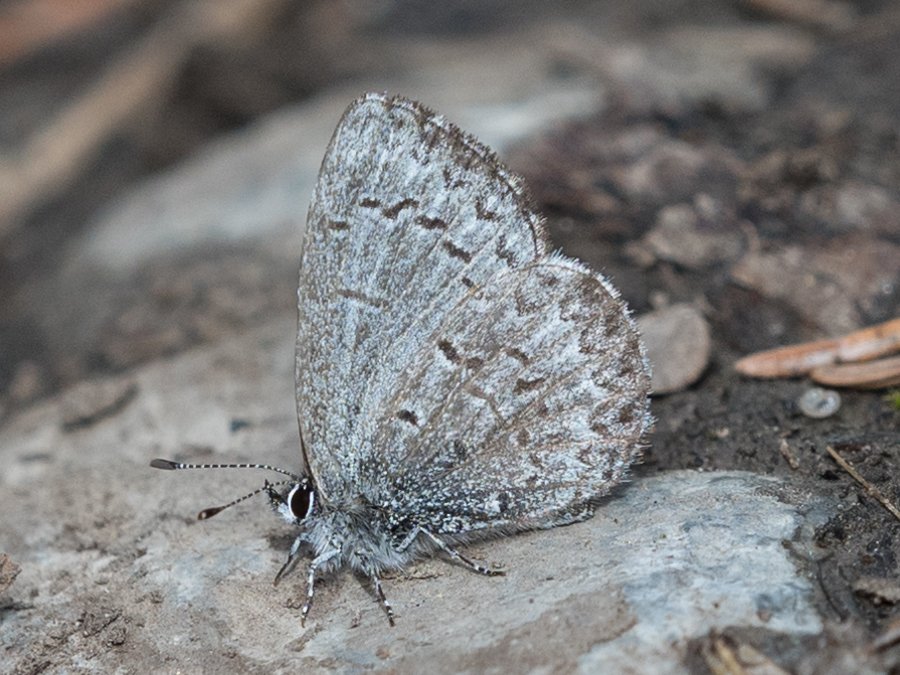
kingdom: Animalia
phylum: Arthropoda
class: Insecta
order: Lepidoptera
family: Lycaenidae
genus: Celastrina
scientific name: Celastrina lucia
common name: Northern Spring Azure
